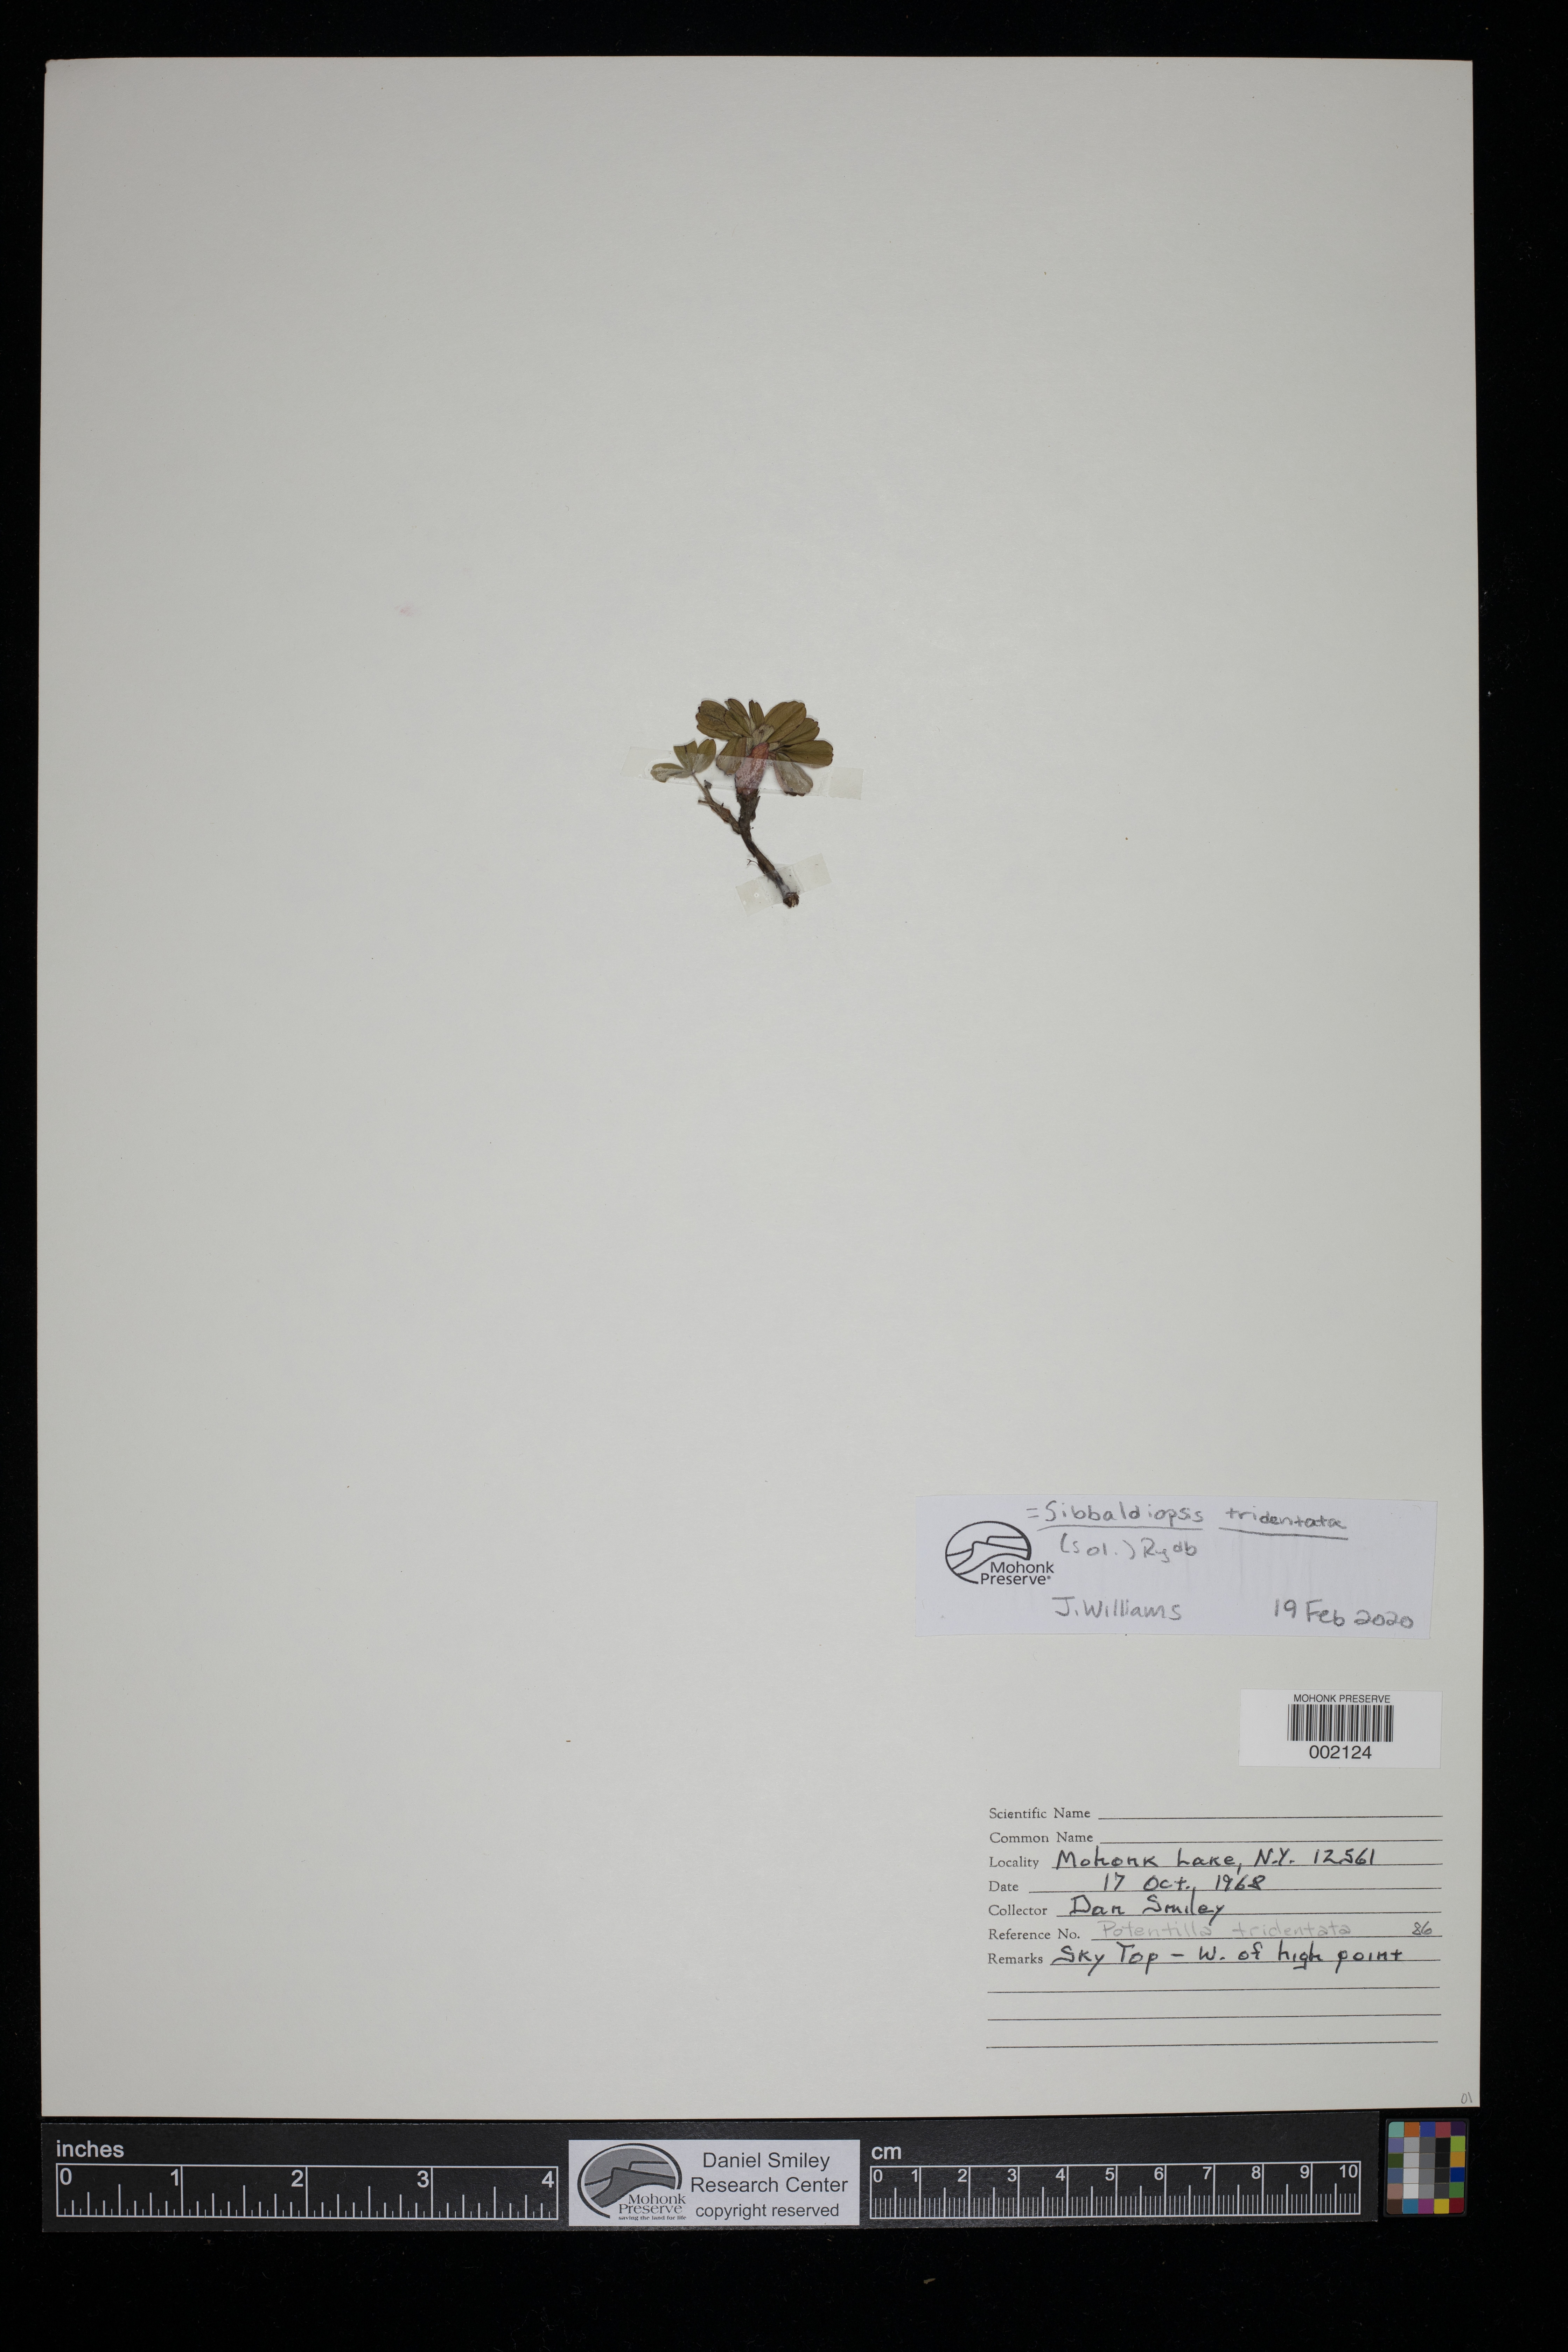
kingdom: Plantae
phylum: Tracheophyta
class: Magnoliopsida
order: Rosales
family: Rosaceae
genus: Sibbaldia
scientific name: Sibbaldia tridentata
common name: Three-toothed cinquefoil
